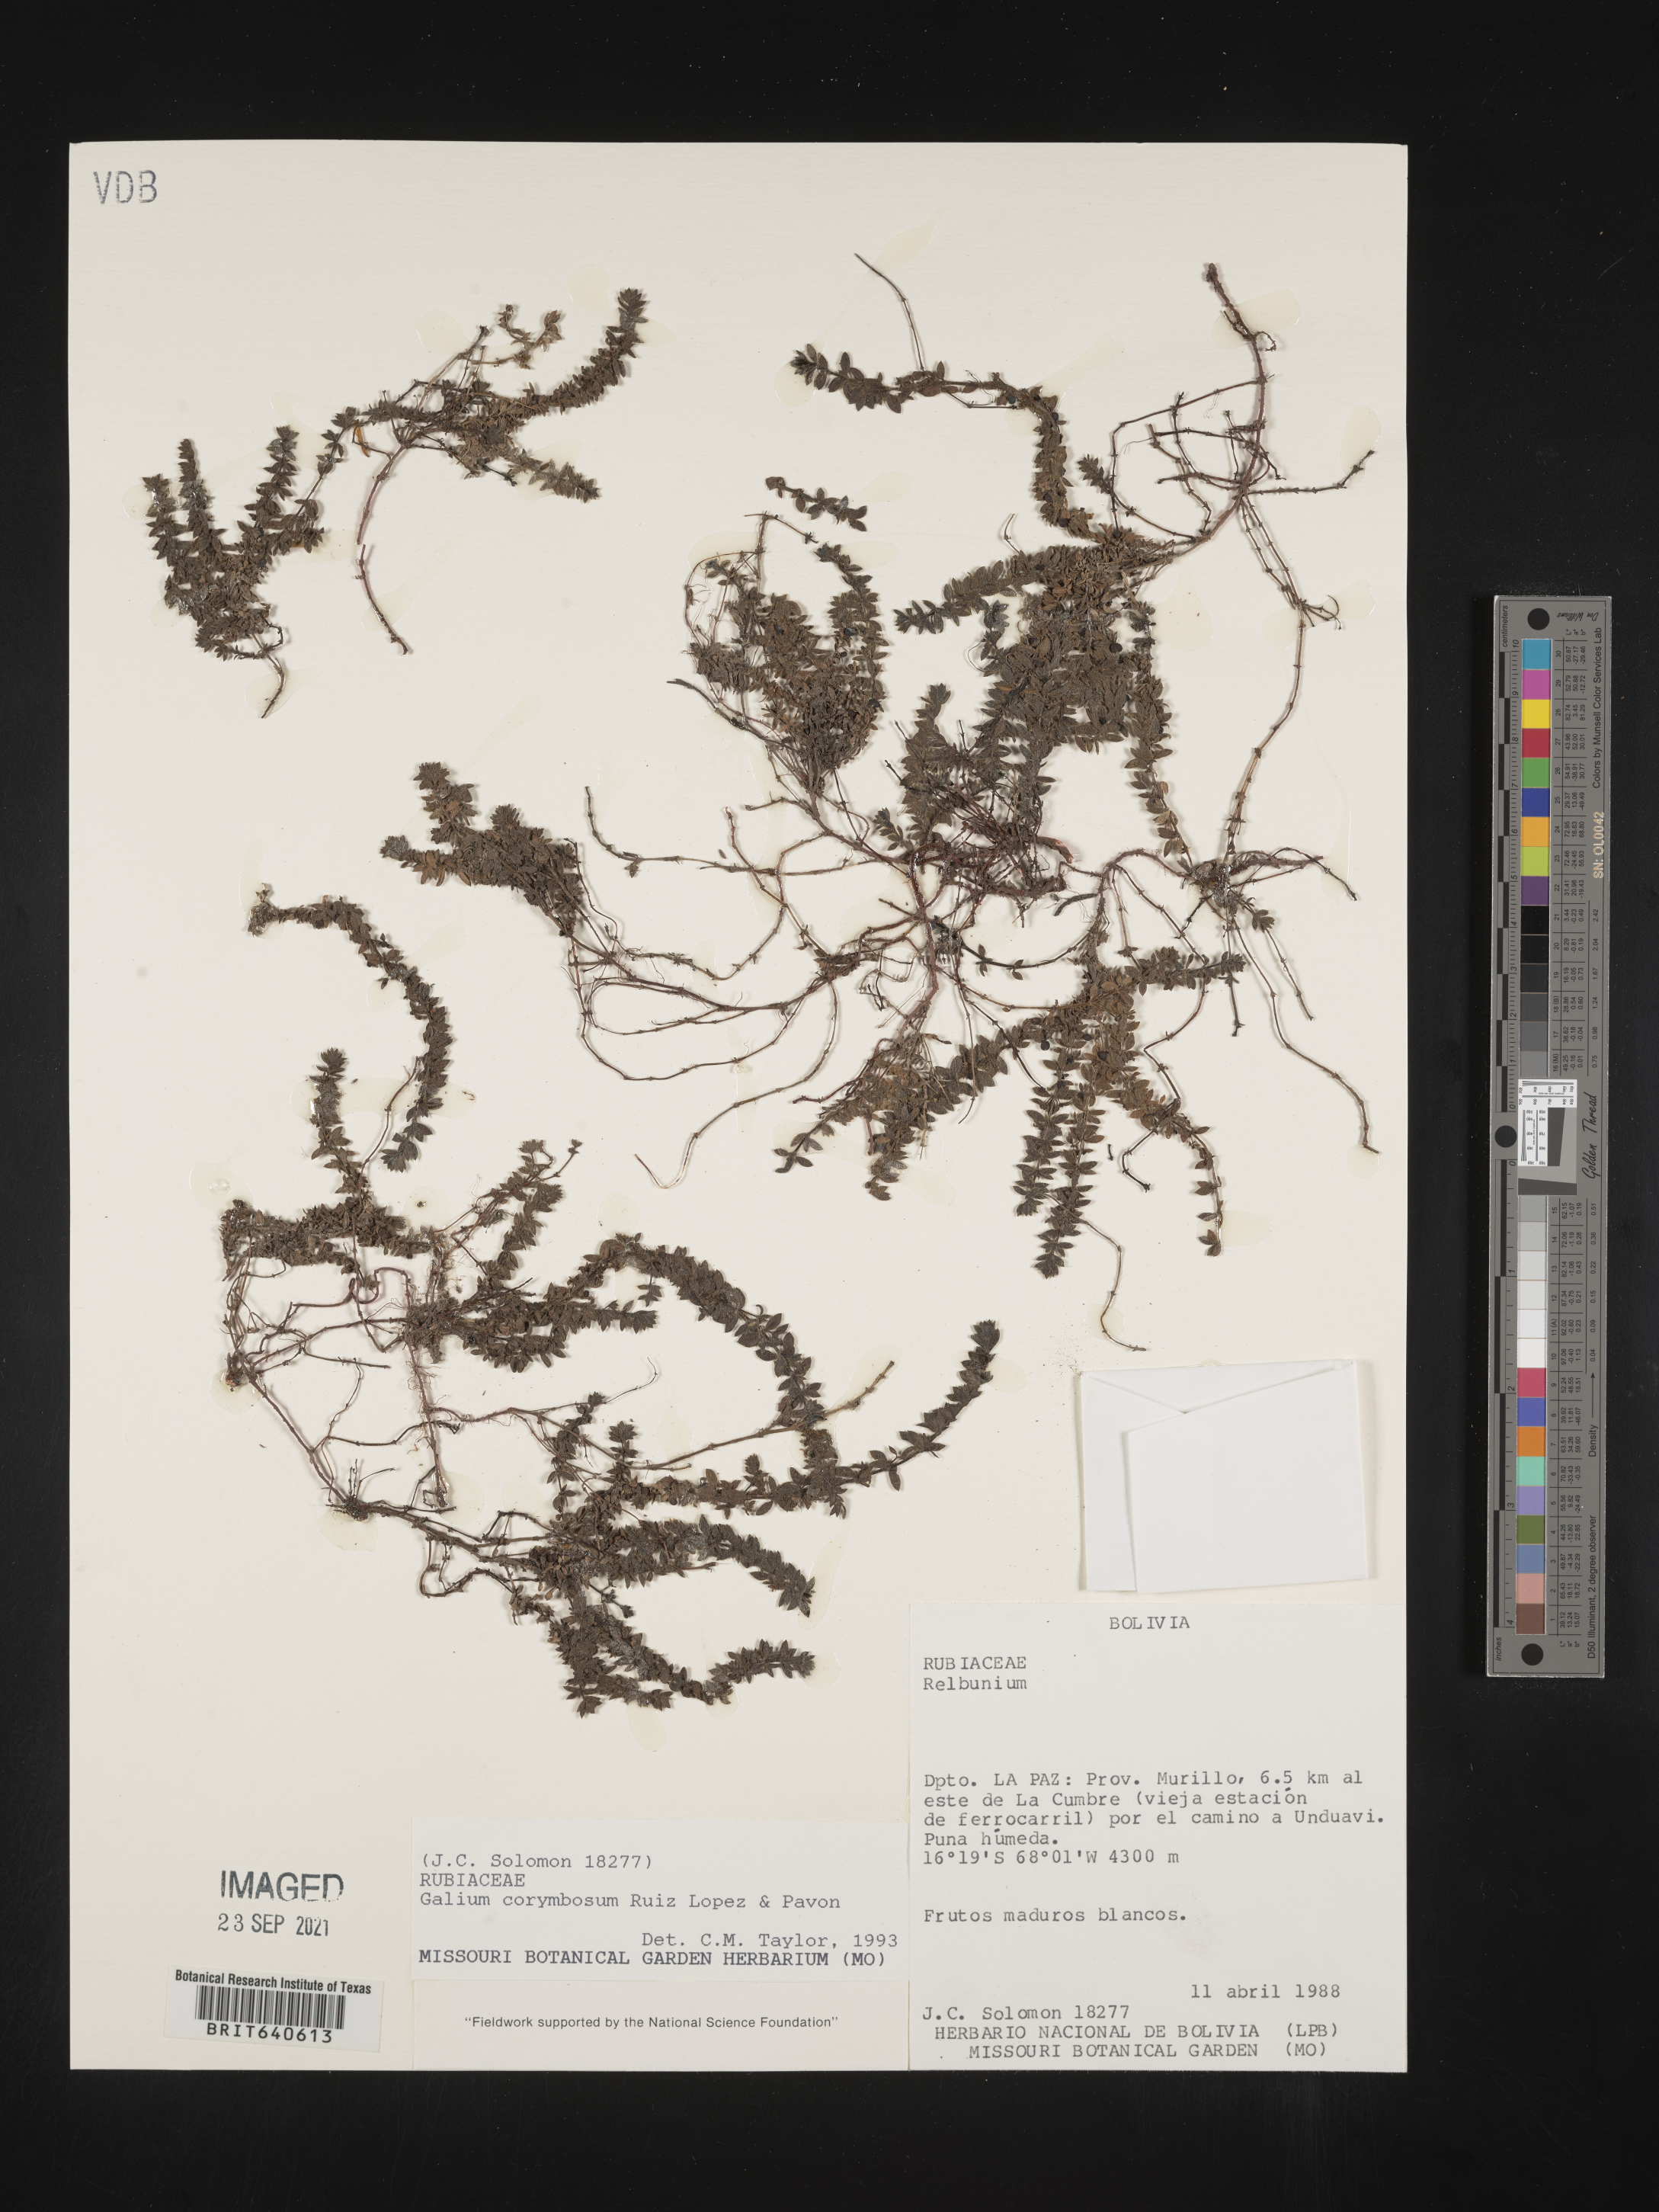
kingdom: Plantae
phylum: Tracheophyta
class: Magnoliopsida
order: Gentianales
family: Rubiaceae
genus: Galium
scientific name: Galium
